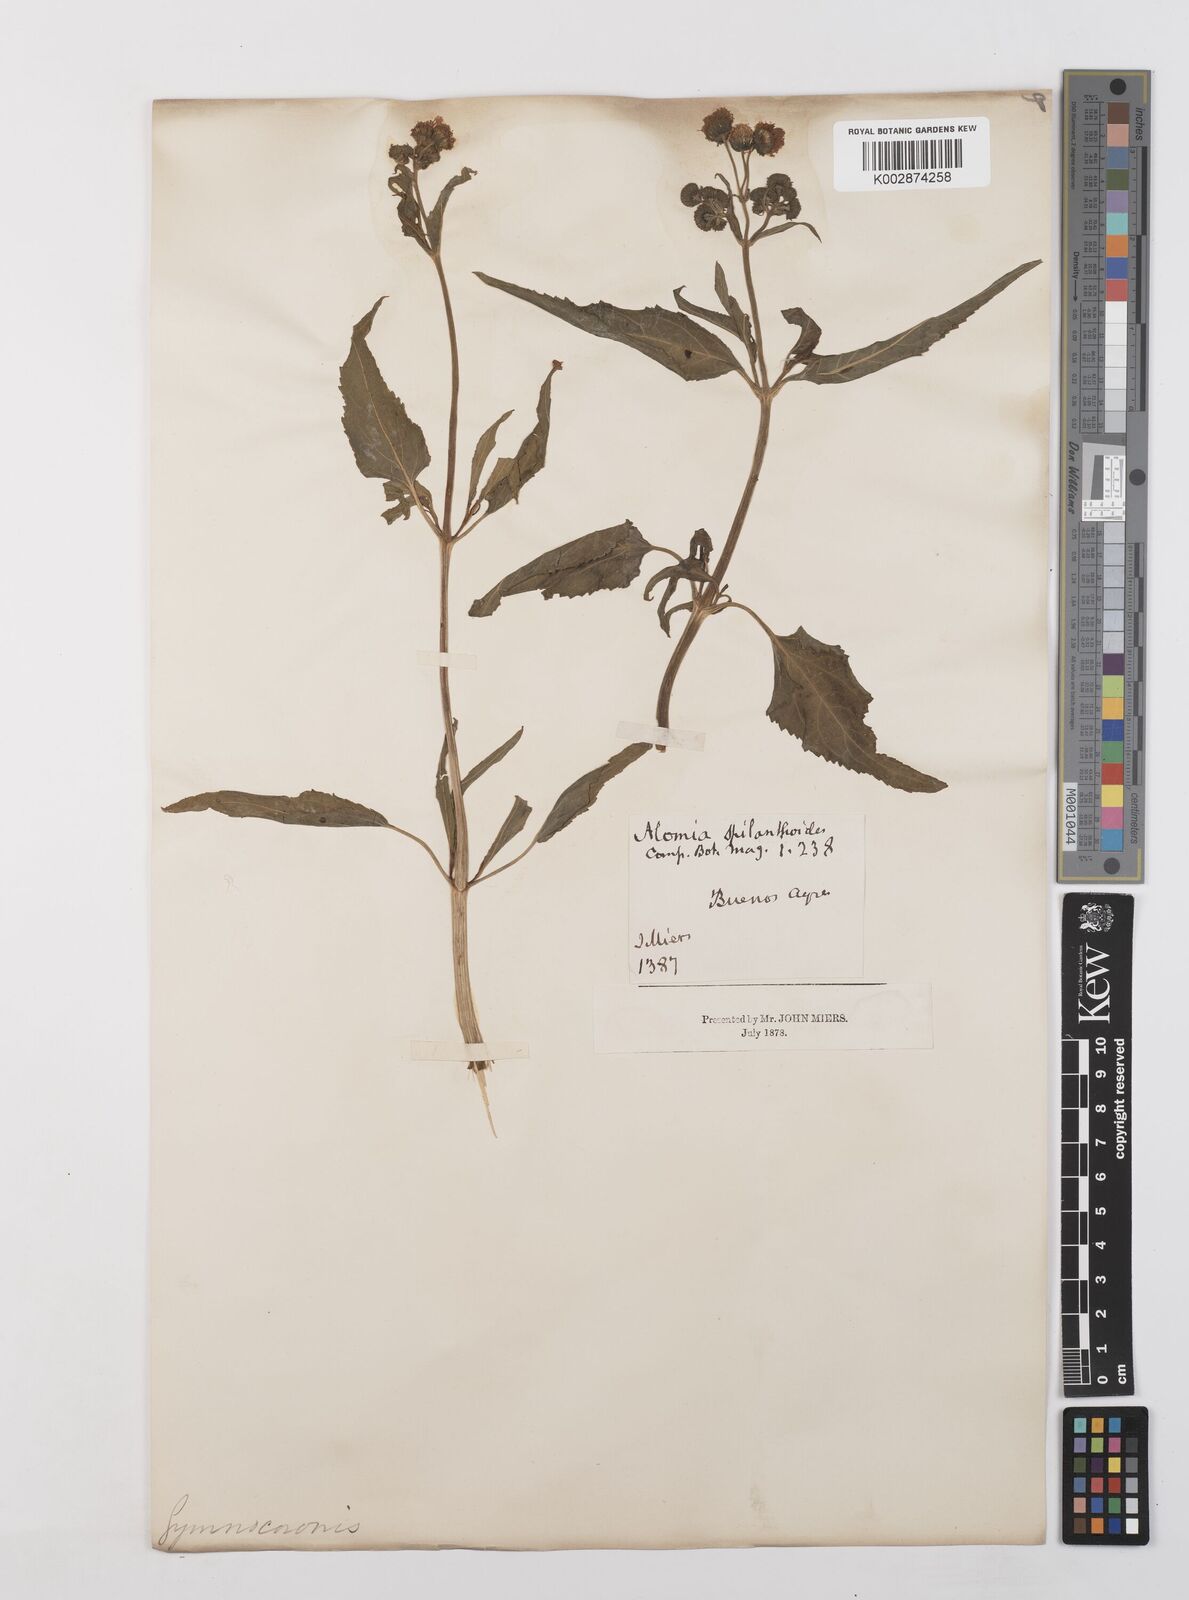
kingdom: Plantae
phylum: Tracheophyta
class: Magnoliopsida
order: Asterales
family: Asteraceae
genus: Gymnocoronis
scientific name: Gymnocoronis spilanthoides
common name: Senegal teaplant
